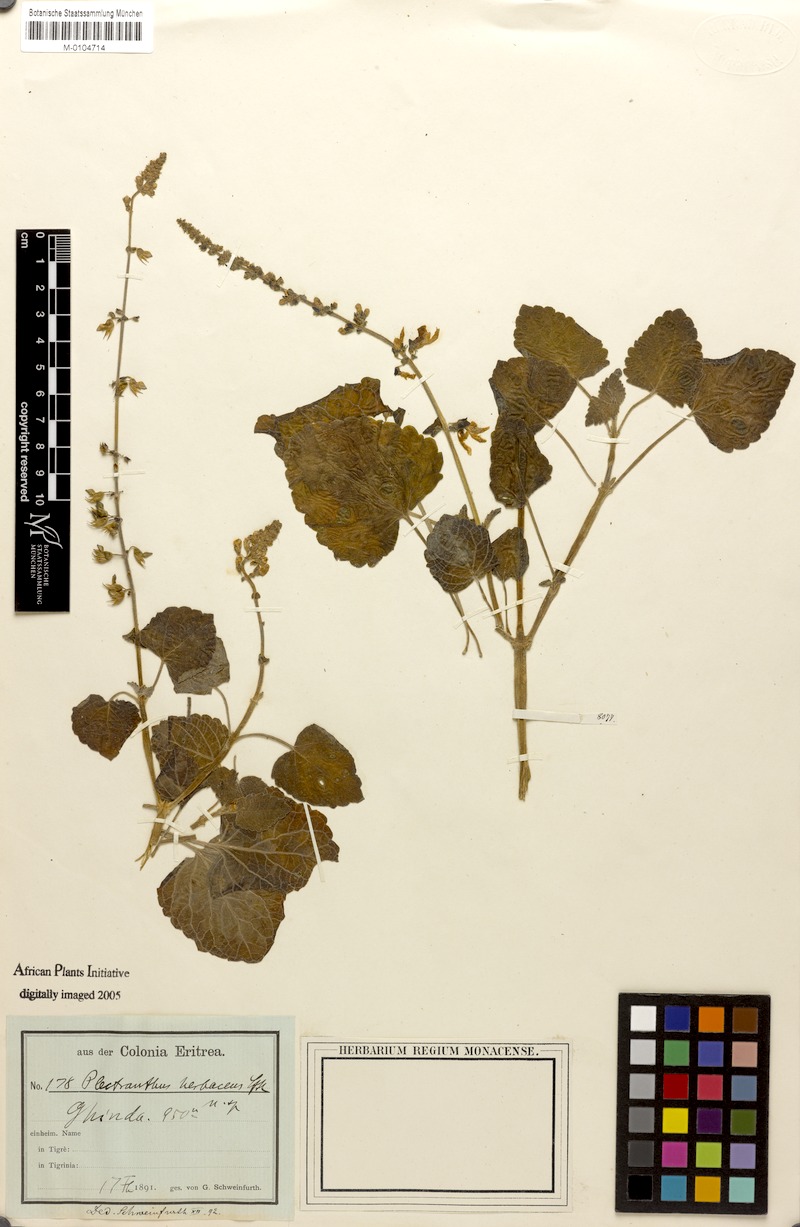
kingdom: Plantae
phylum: Tracheophyta
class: Magnoliopsida
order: Lamiales
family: Lamiaceae
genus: Equilabium
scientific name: Equilabium longipes
